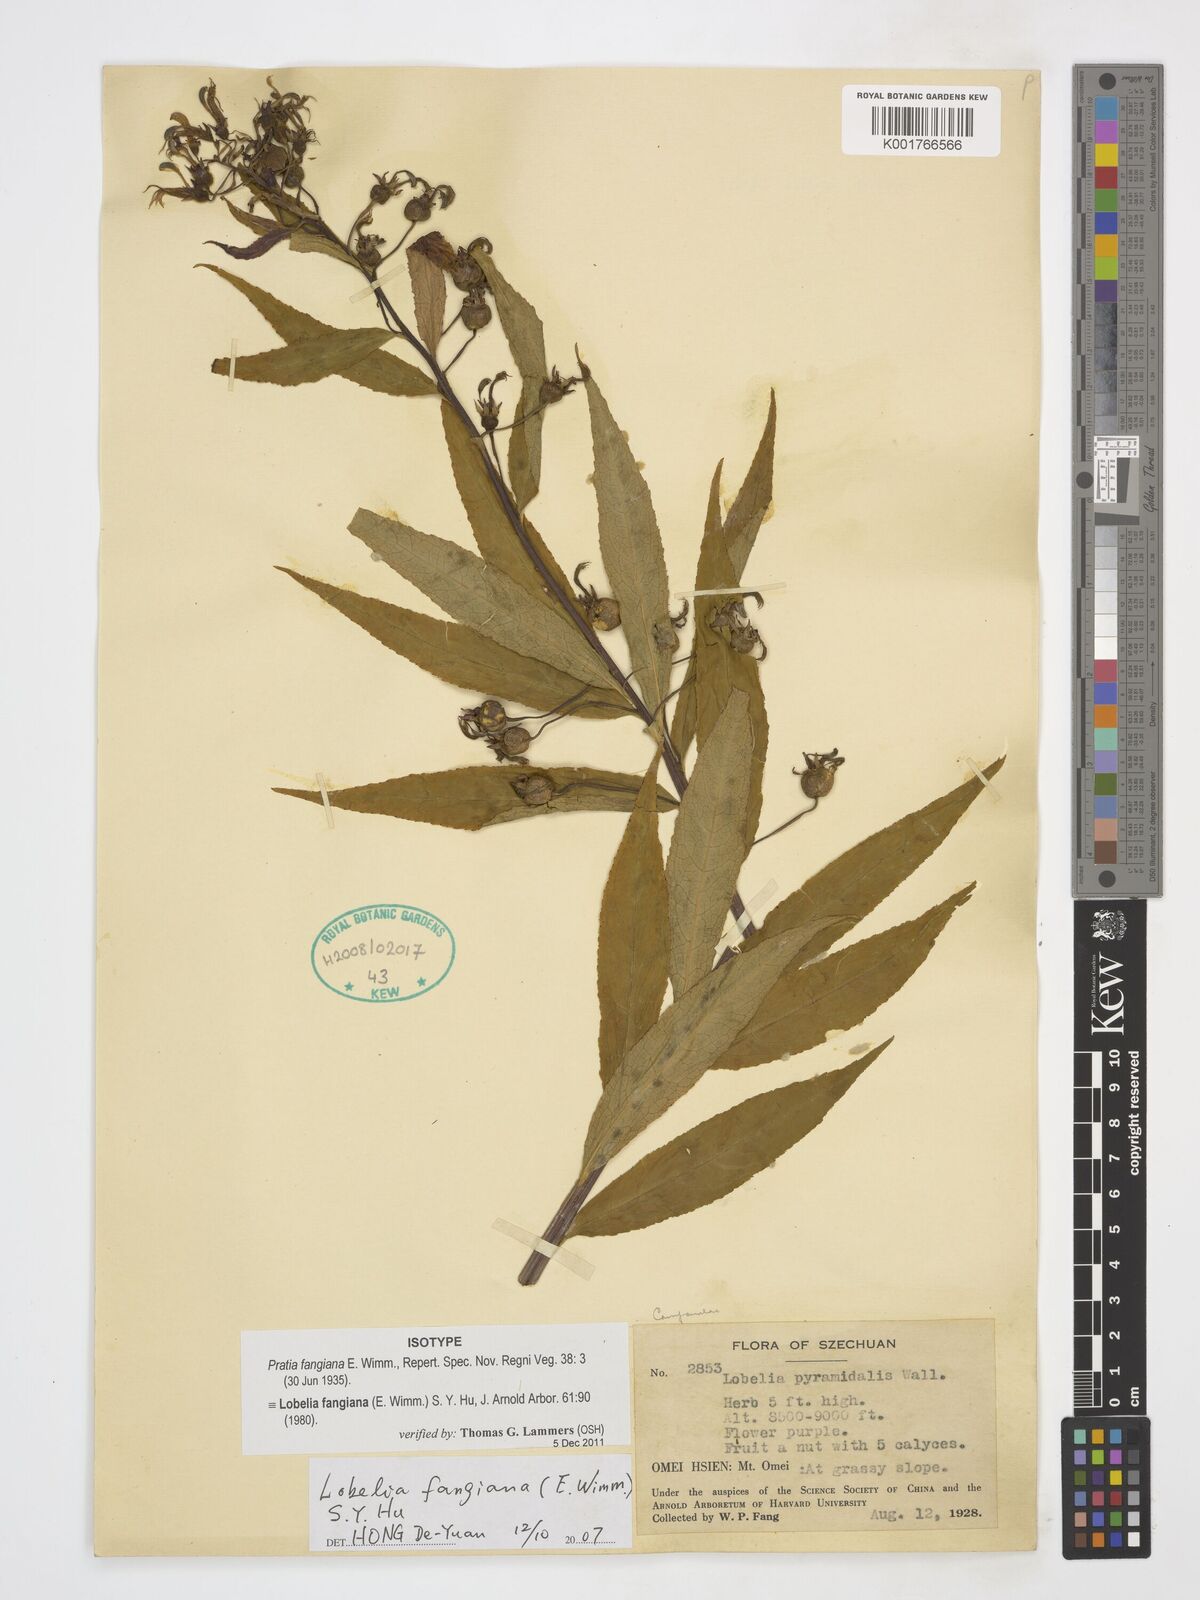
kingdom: Plantae
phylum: Tracheophyta
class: Magnoliopsida
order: Asterales
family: Campanulaceae
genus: Lobelia
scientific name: Lobelia fangiana
